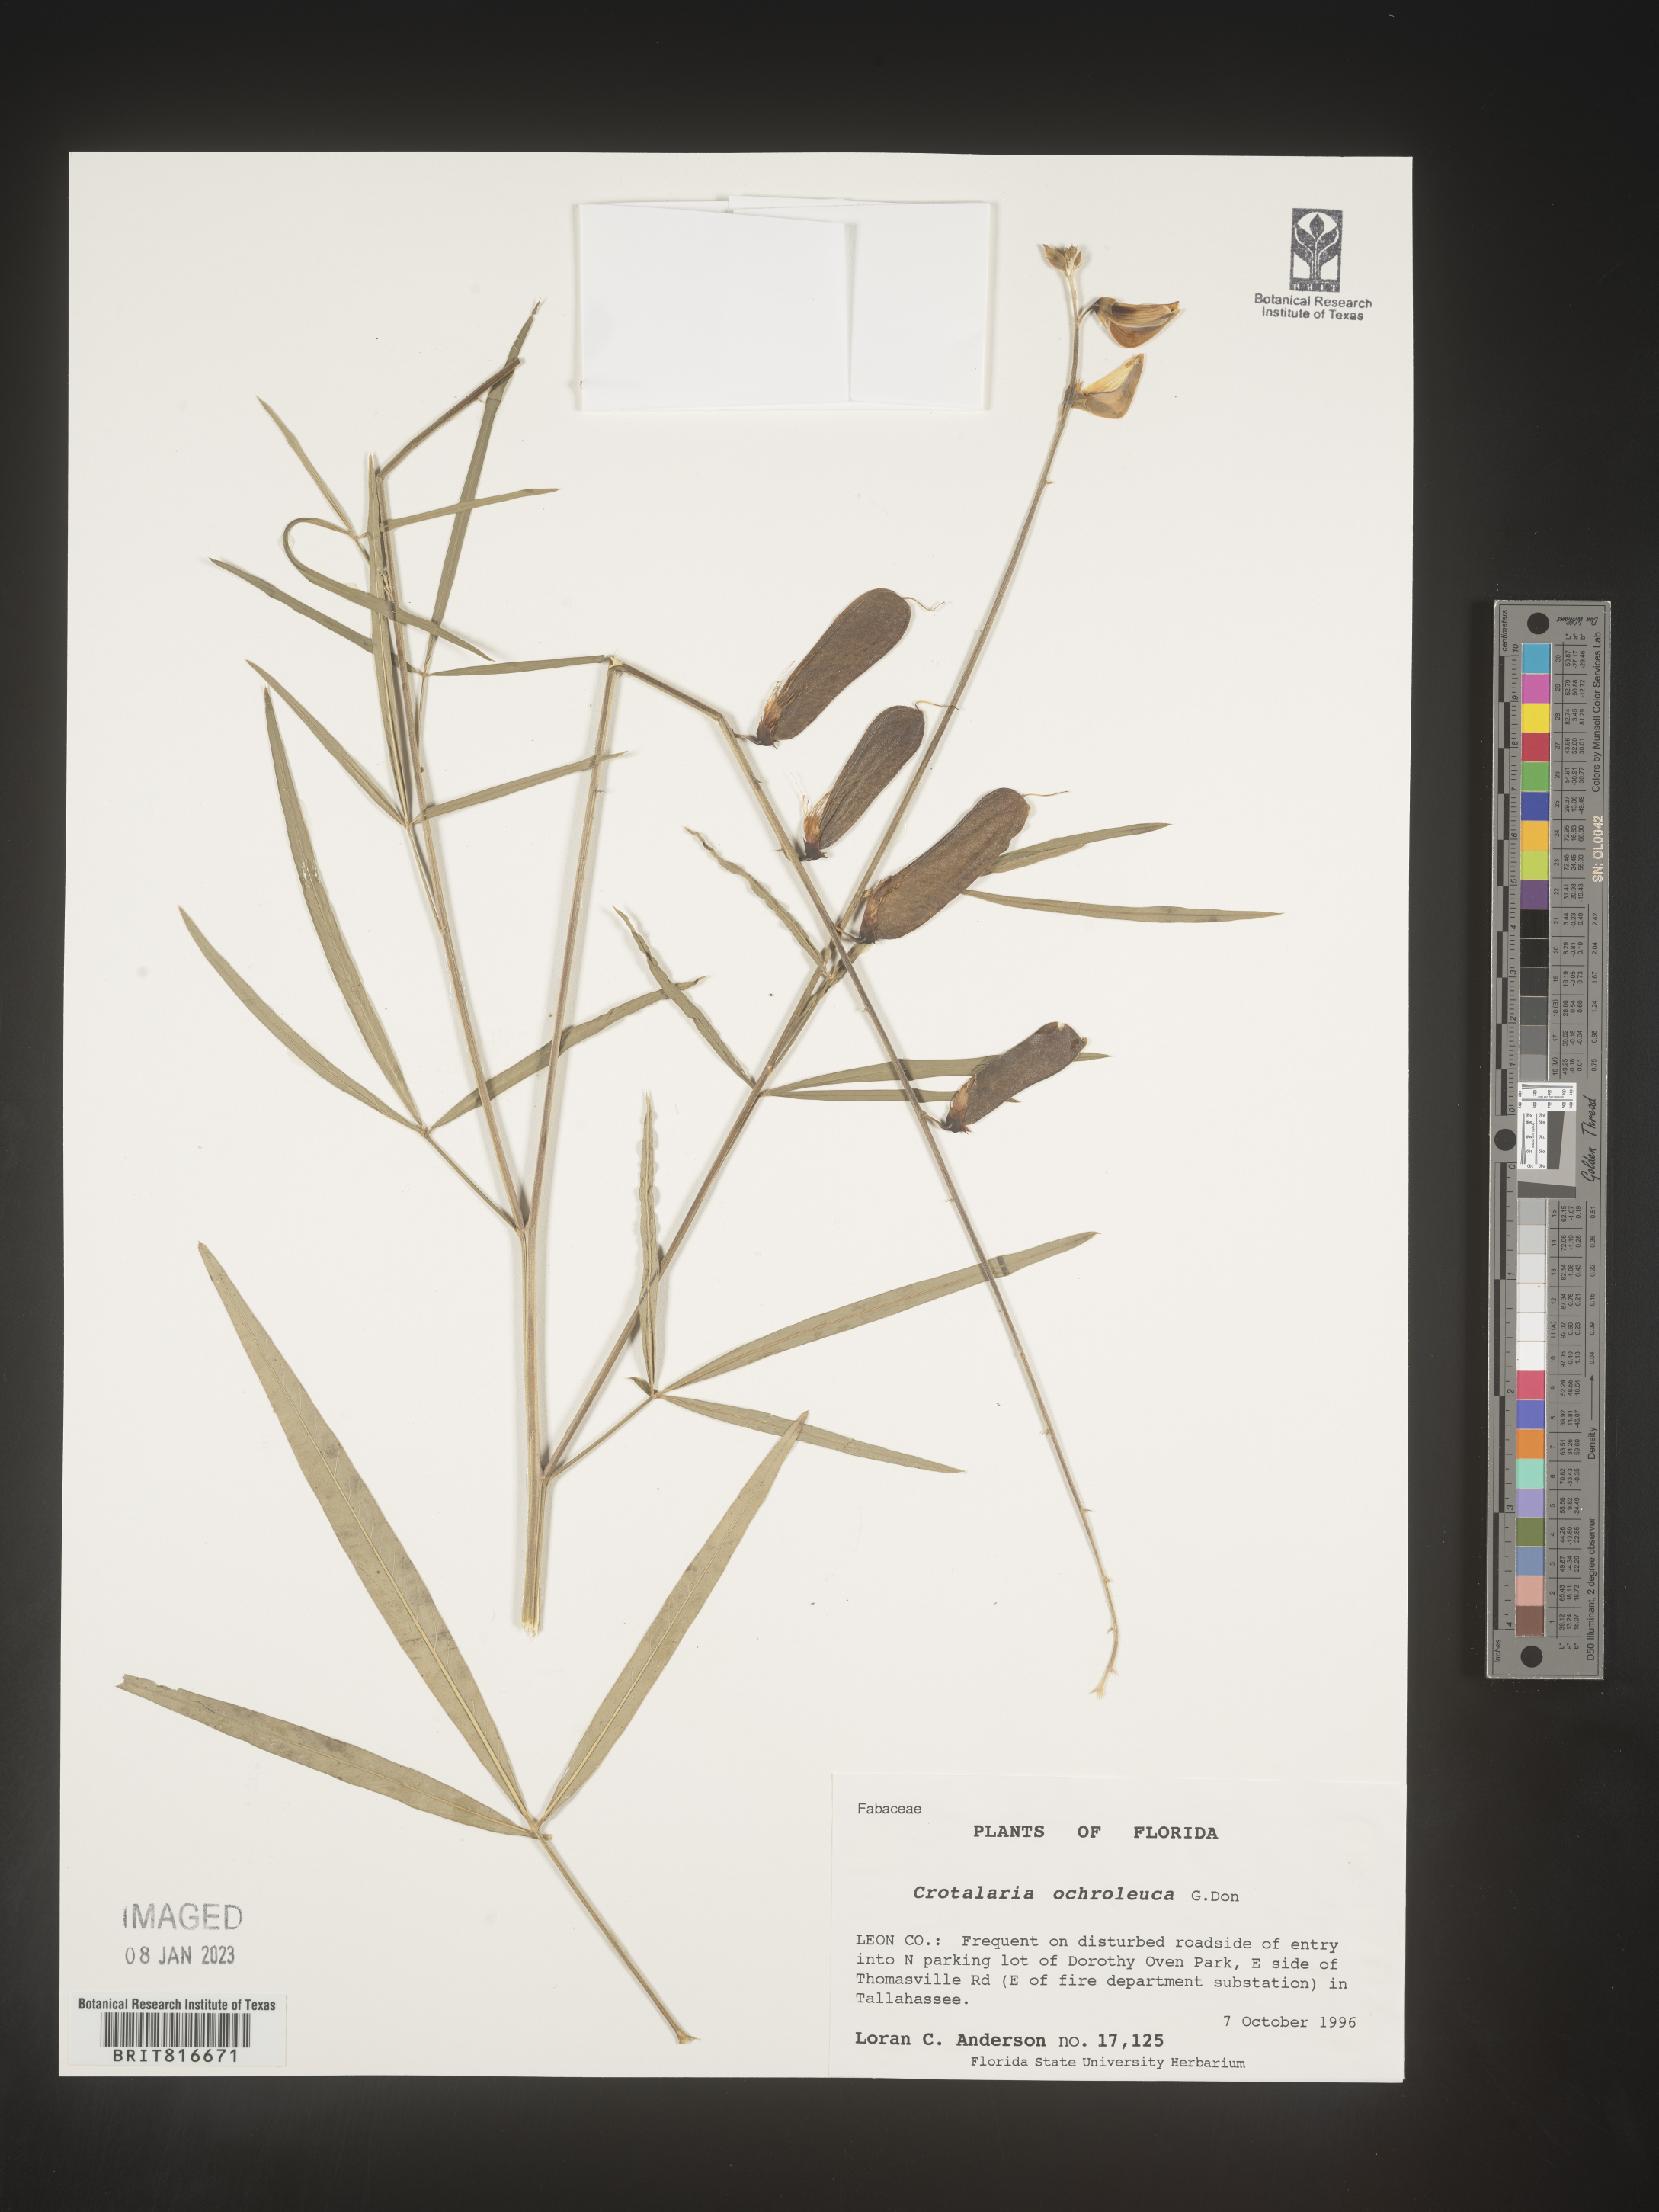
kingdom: Plantae
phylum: Tracheophyta
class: Magnoliopsida
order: Fabales
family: Fabaceae
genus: Crotalaria
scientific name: Crotalaria ochroleuca
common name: Slender leaf rattlebox
